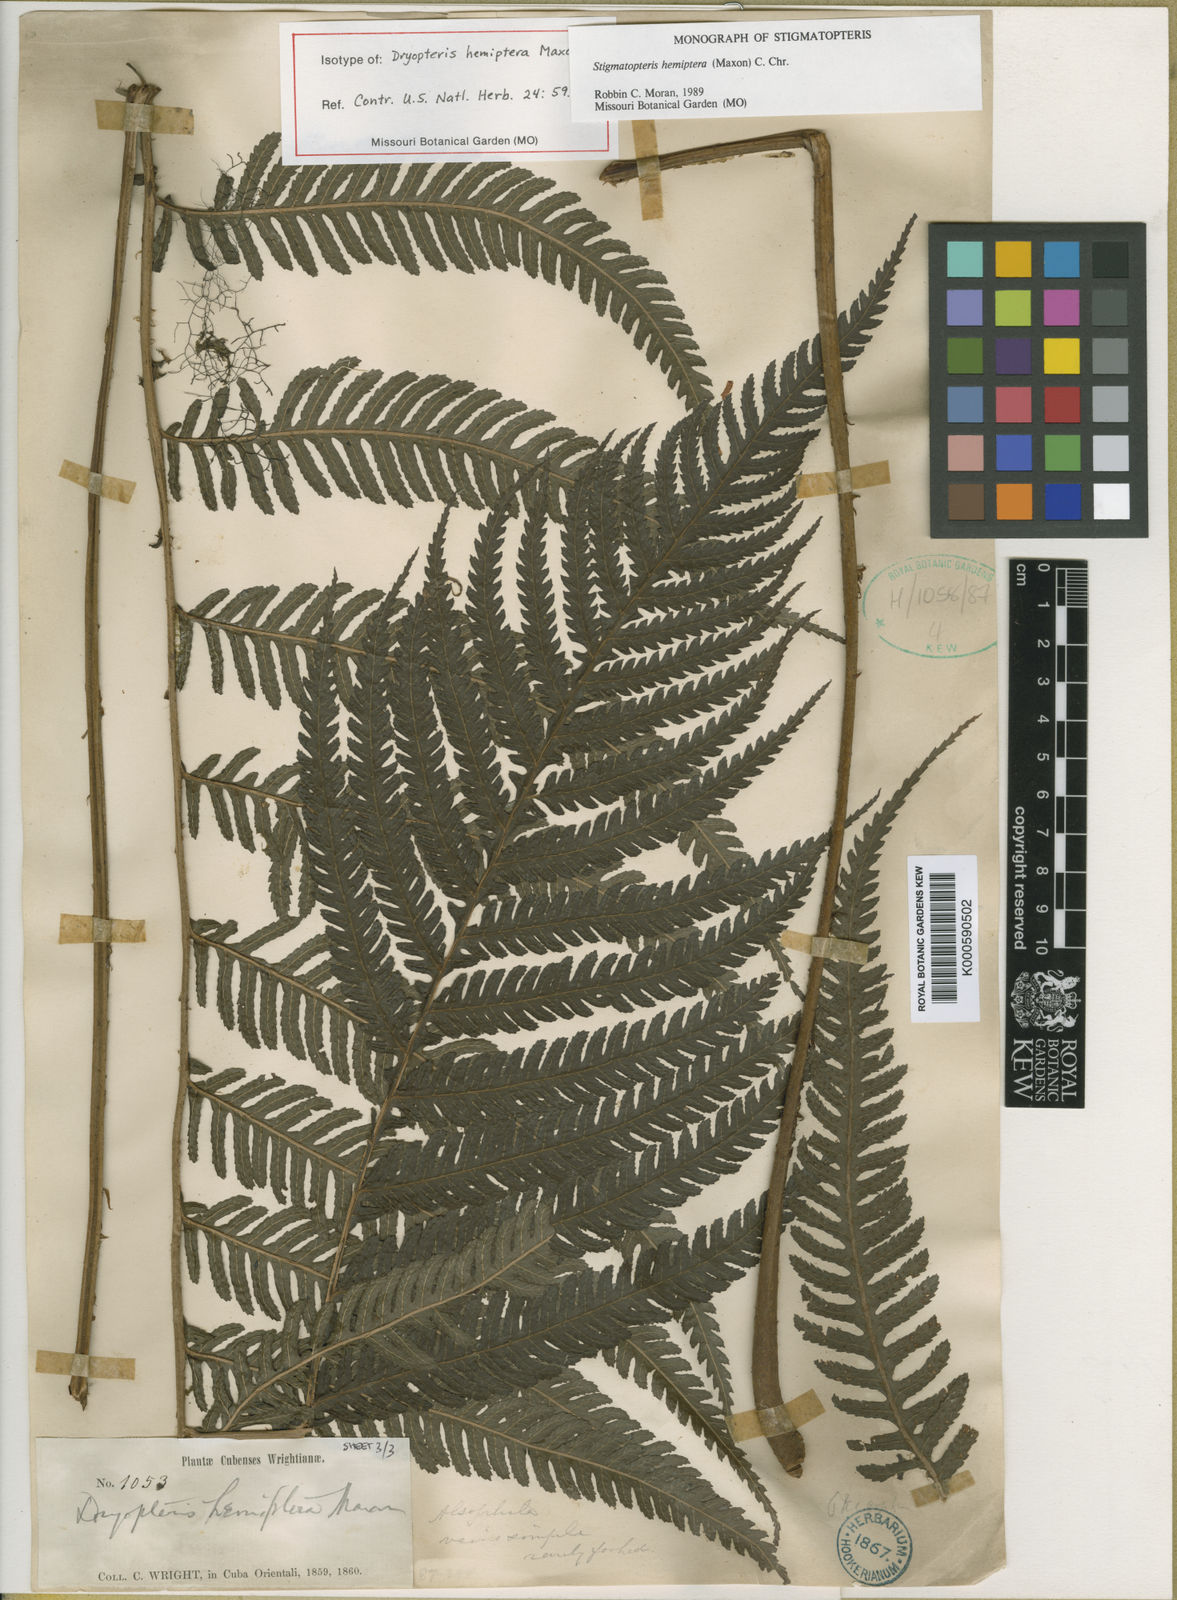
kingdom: Plantae
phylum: Tracheophyta
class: Polypodiopsida
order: Polypodiales
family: Dryopteridaceae
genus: Stigmatopteris
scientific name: Stigmatopteris gemmipara
